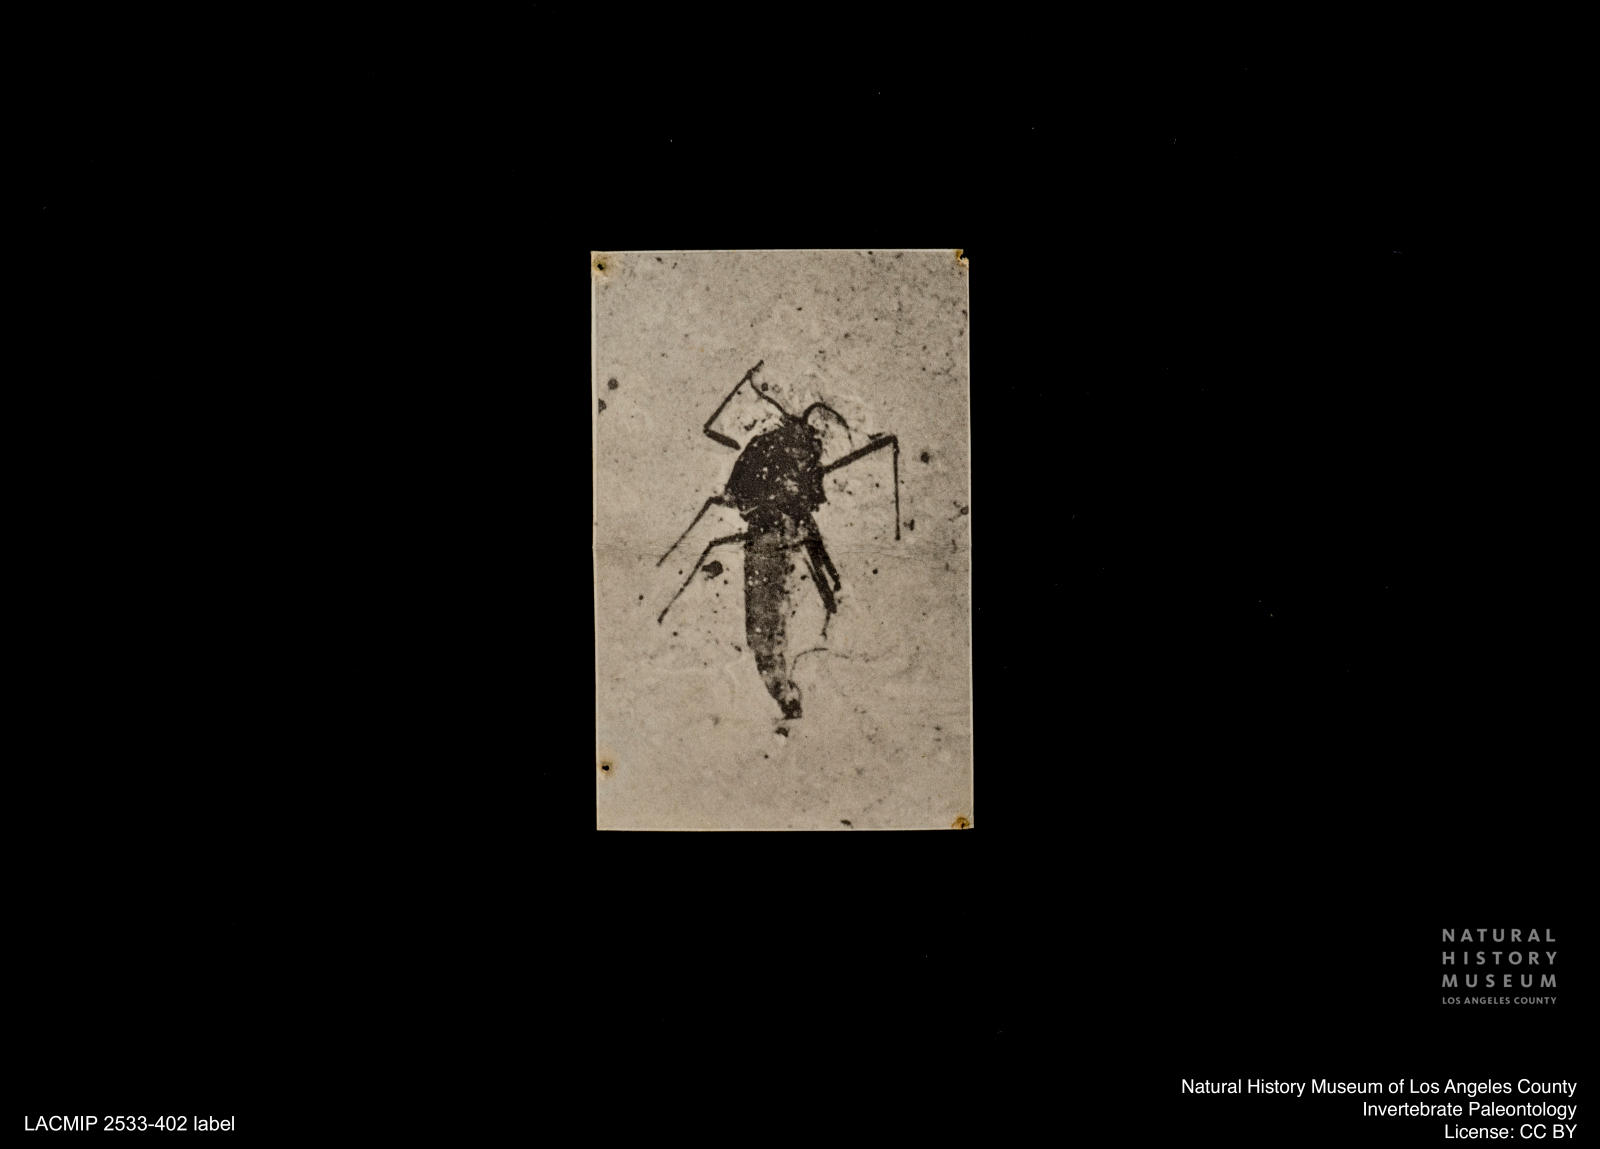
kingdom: Animalia
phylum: Arthropoda
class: Insecta
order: Diptera
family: Chironomidae
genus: Orthocladius
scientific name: Orthocladius
